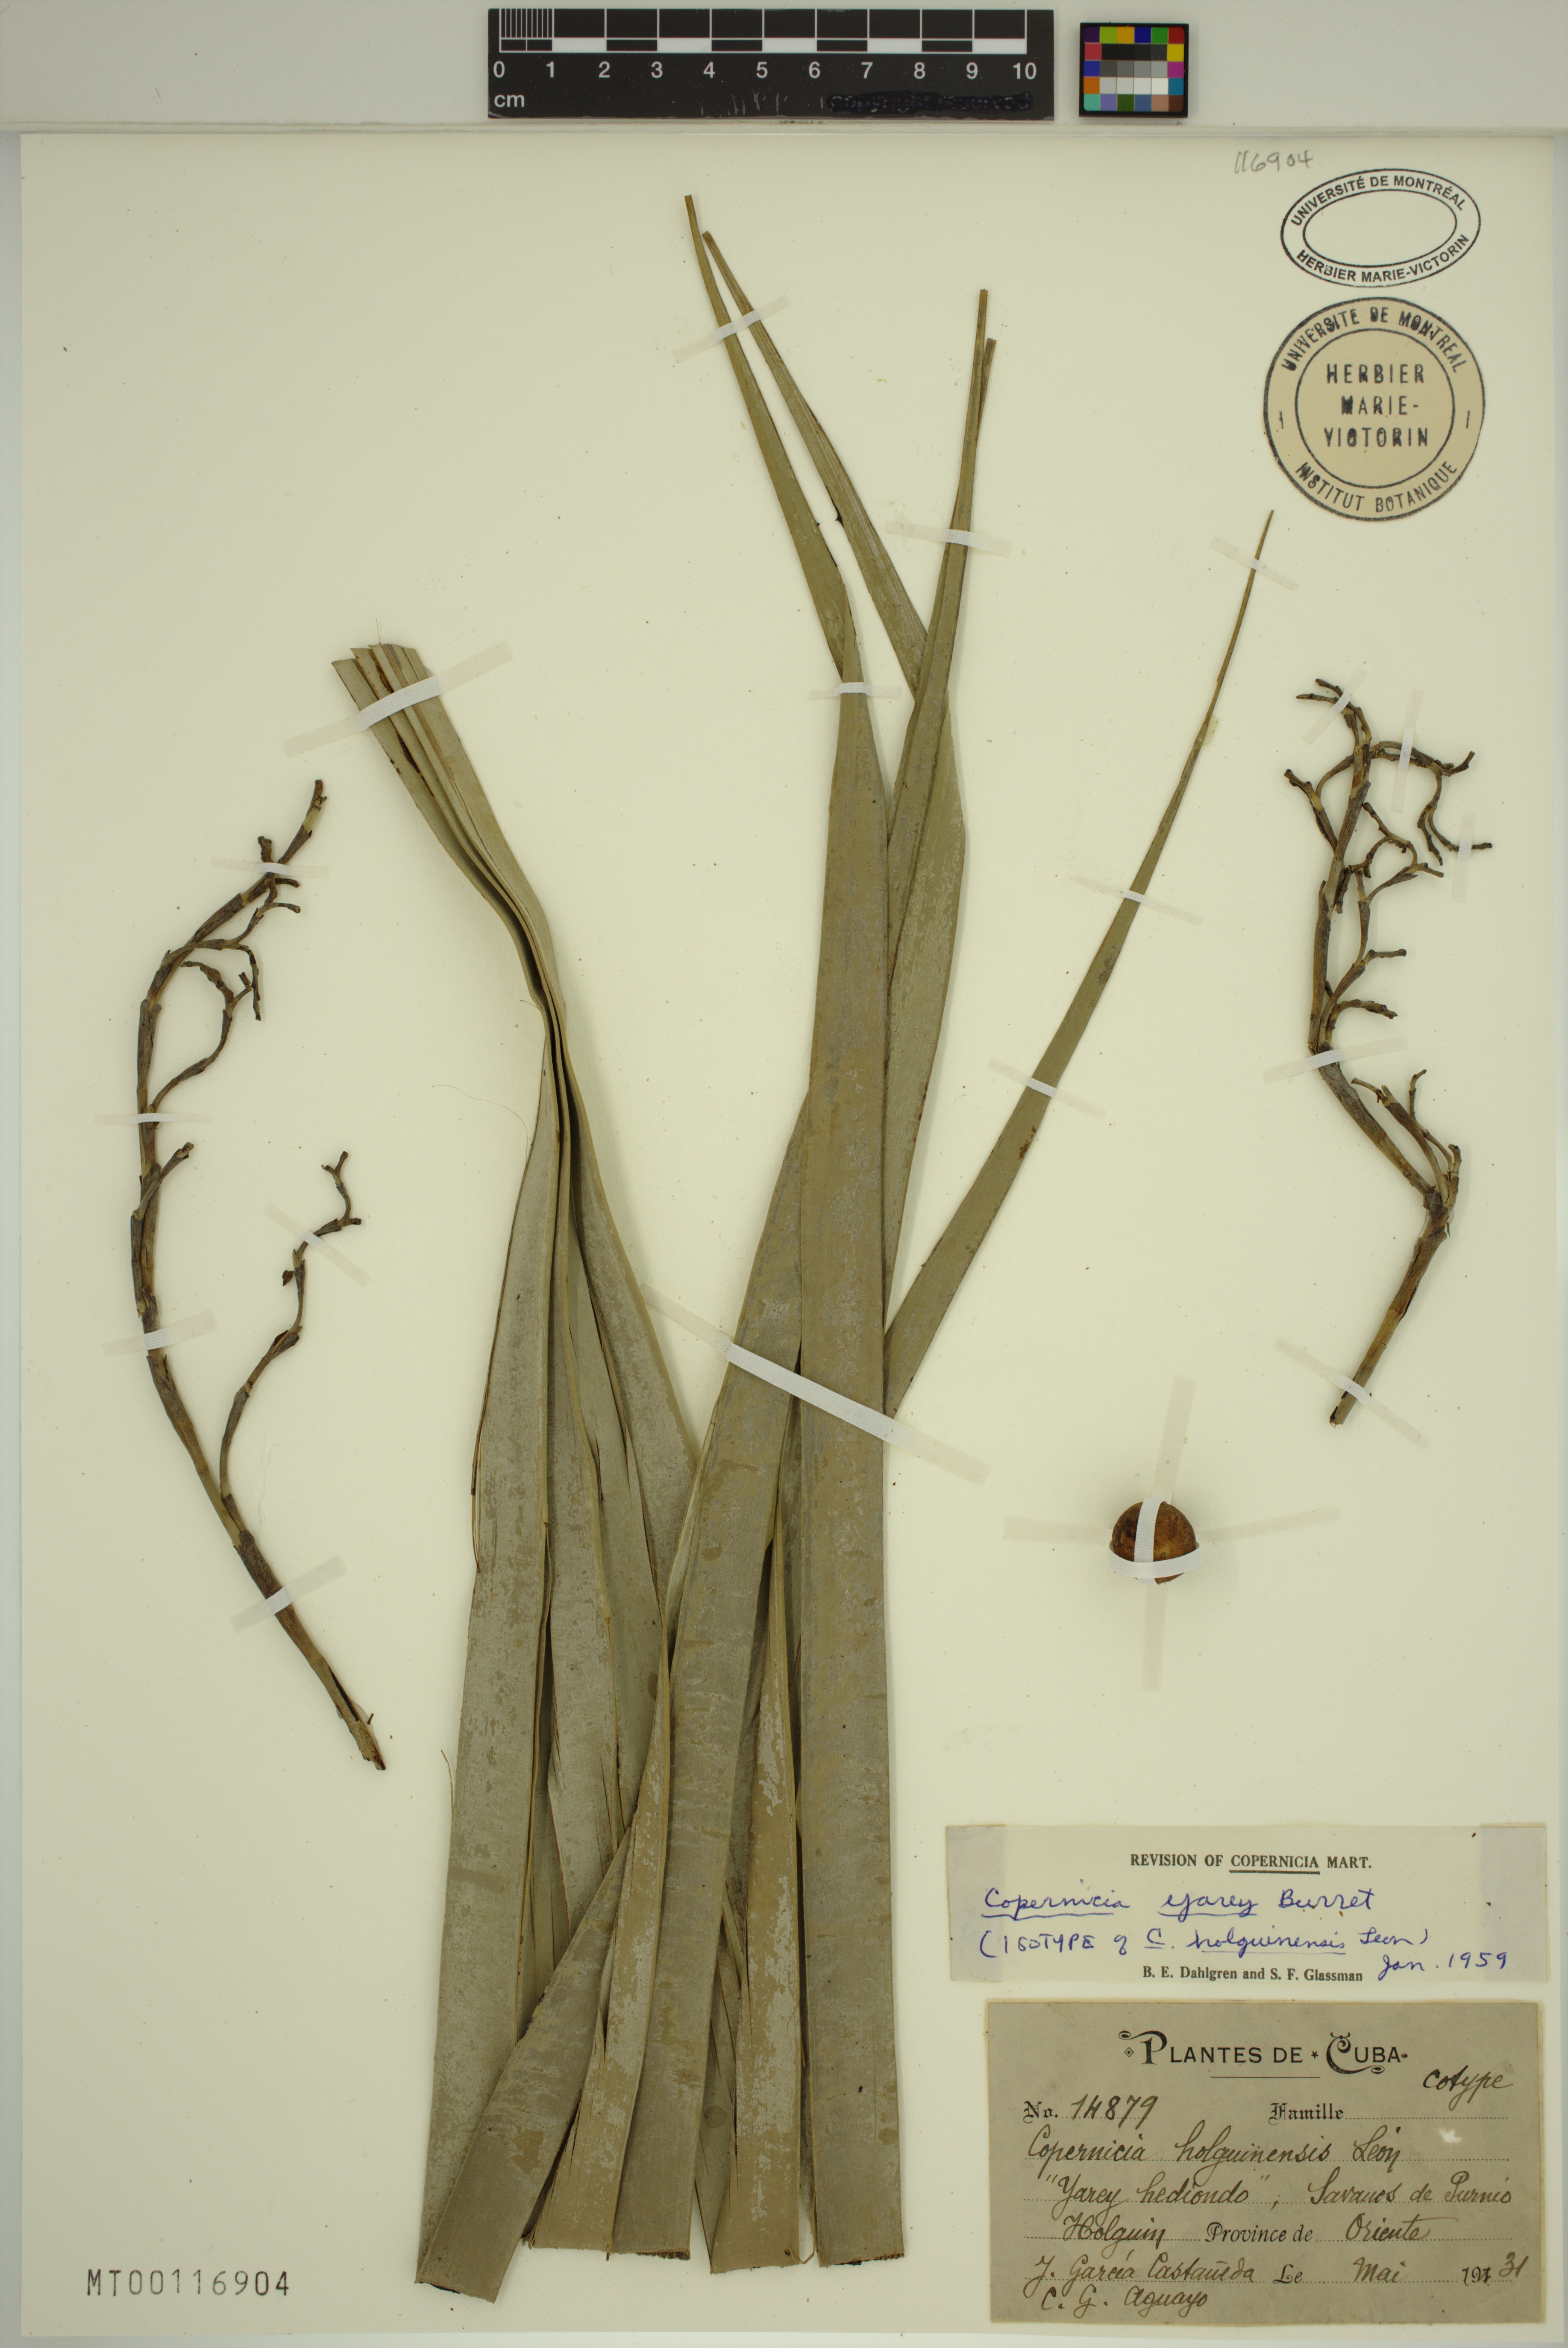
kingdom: Plantae
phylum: Tracheophyta
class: Liliopsida
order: Arecales
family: Arecaceae
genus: Copernicia
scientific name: Copernicia yarey
